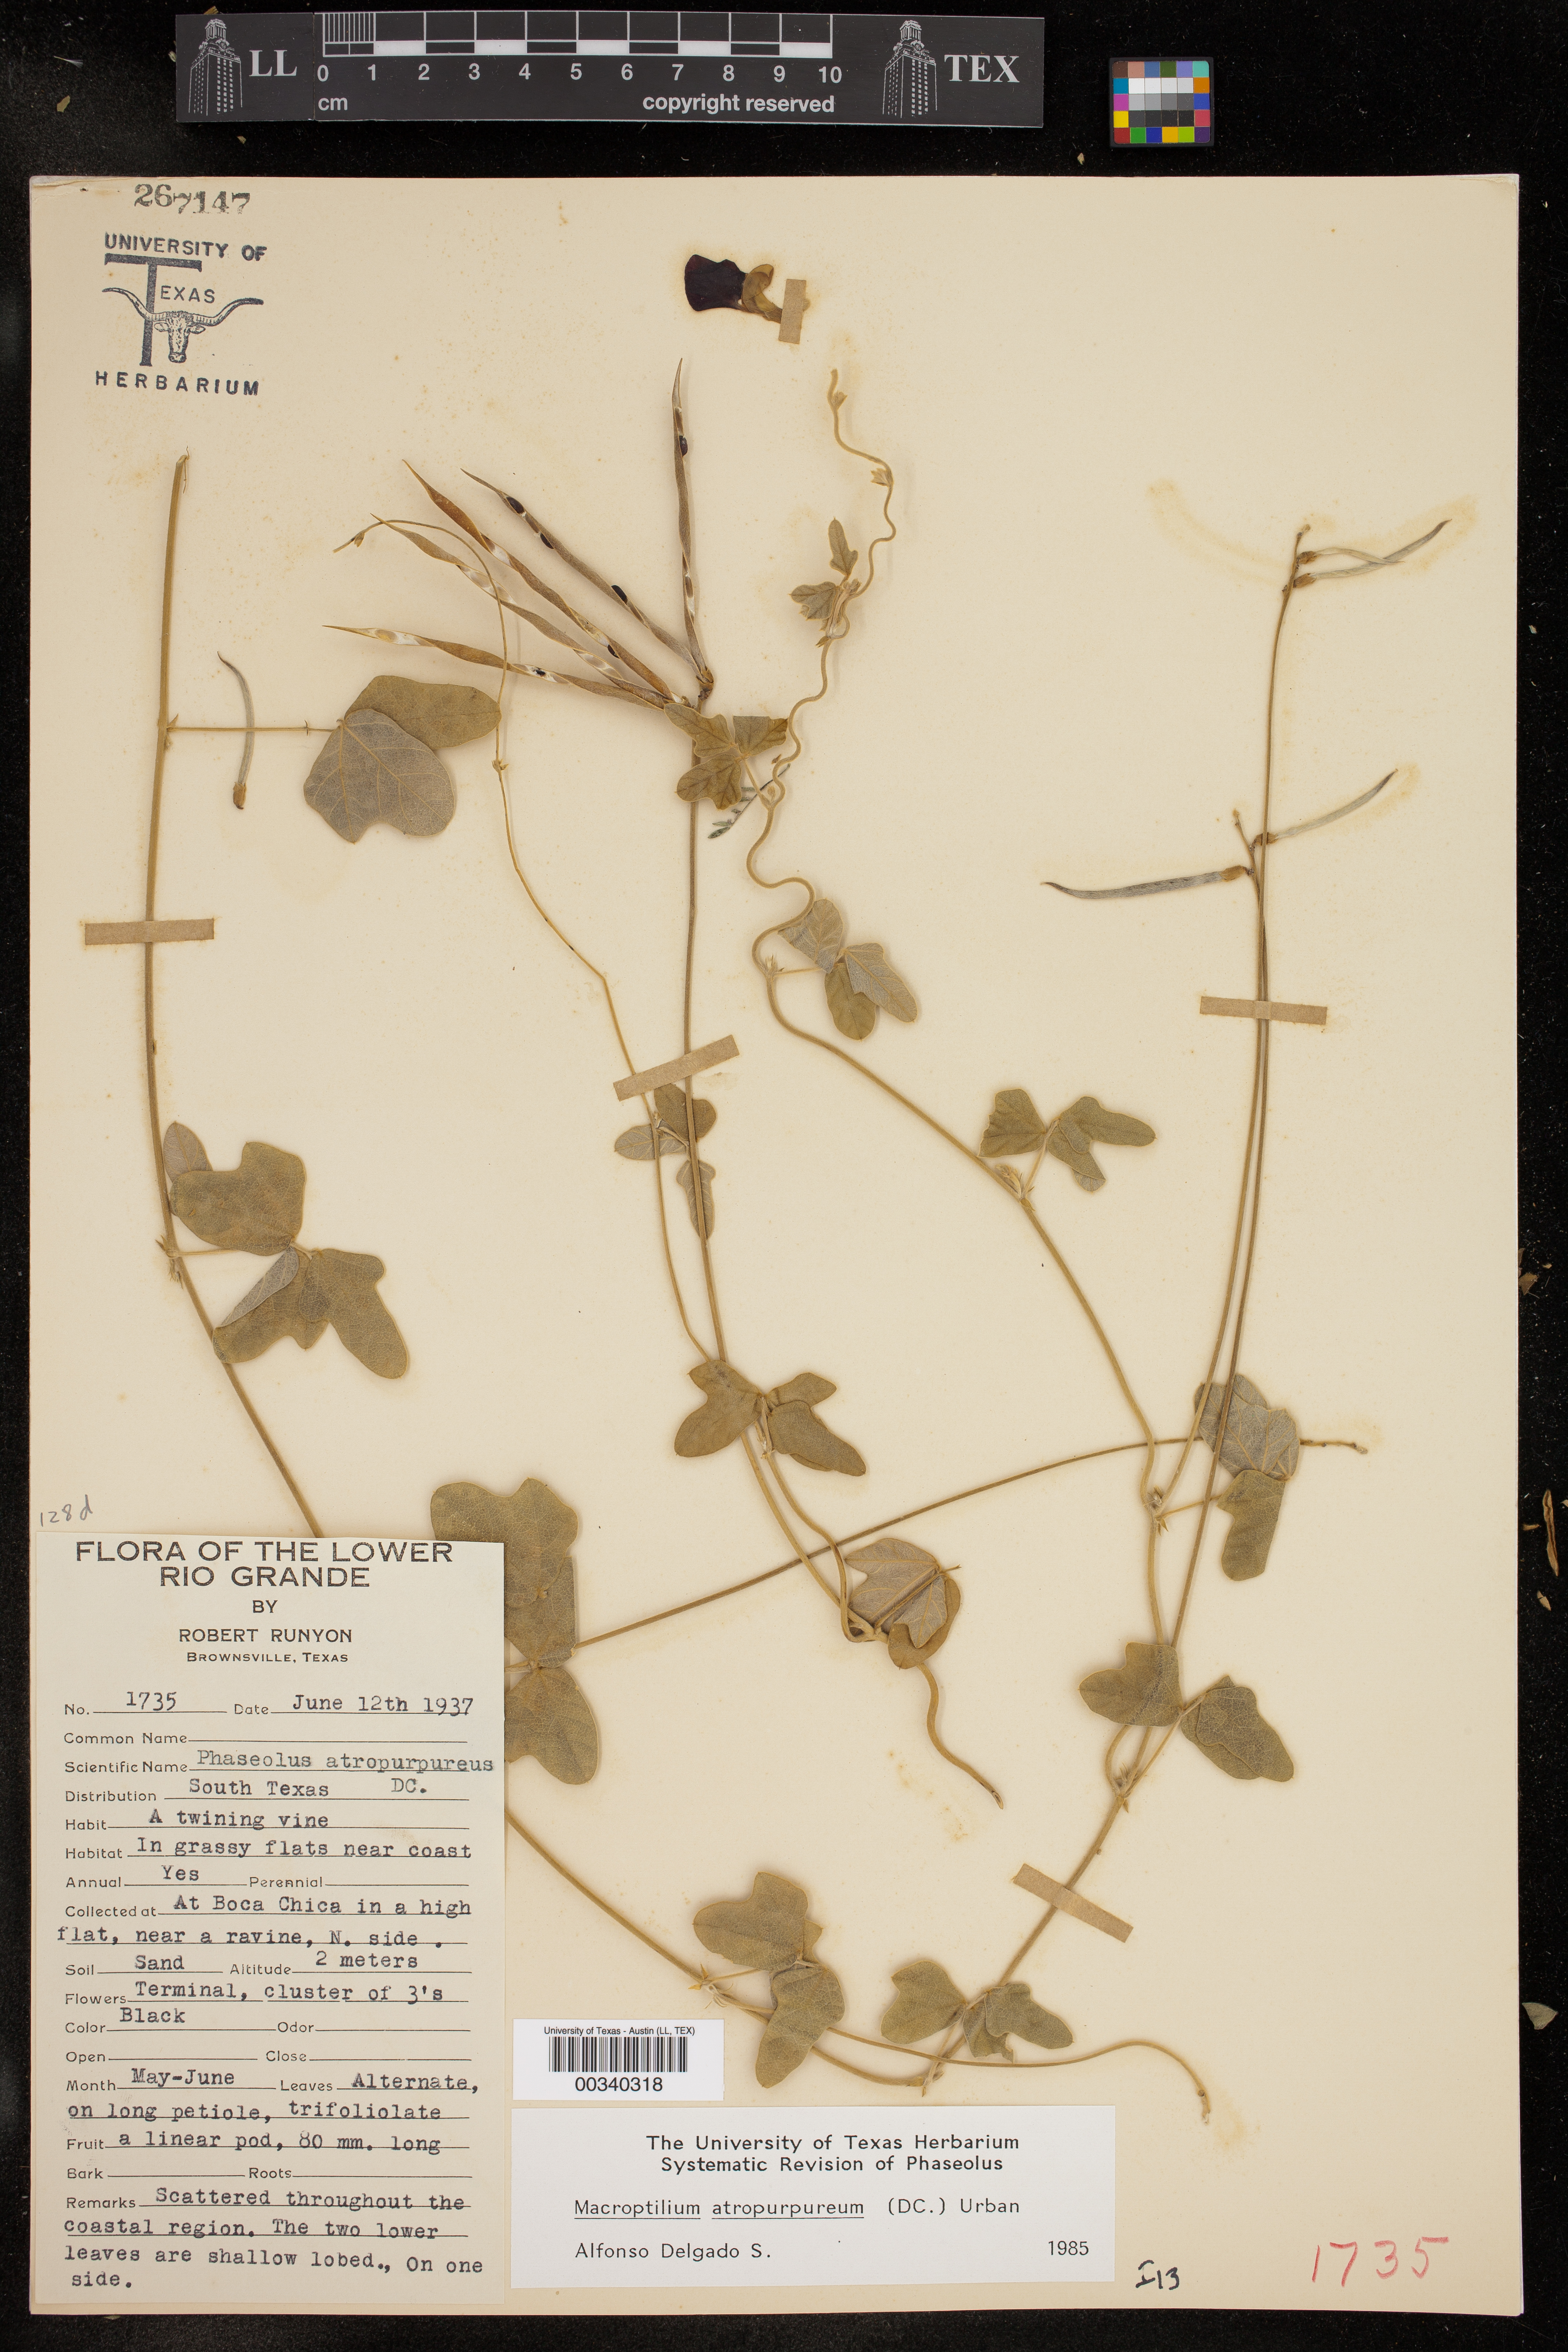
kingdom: Plantae
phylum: Tracheophyta
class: Magnoliopsida
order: Fabales
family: Fabaceae
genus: Macroptilium
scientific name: Macroptilium atropurpureum
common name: Purple bushbean
